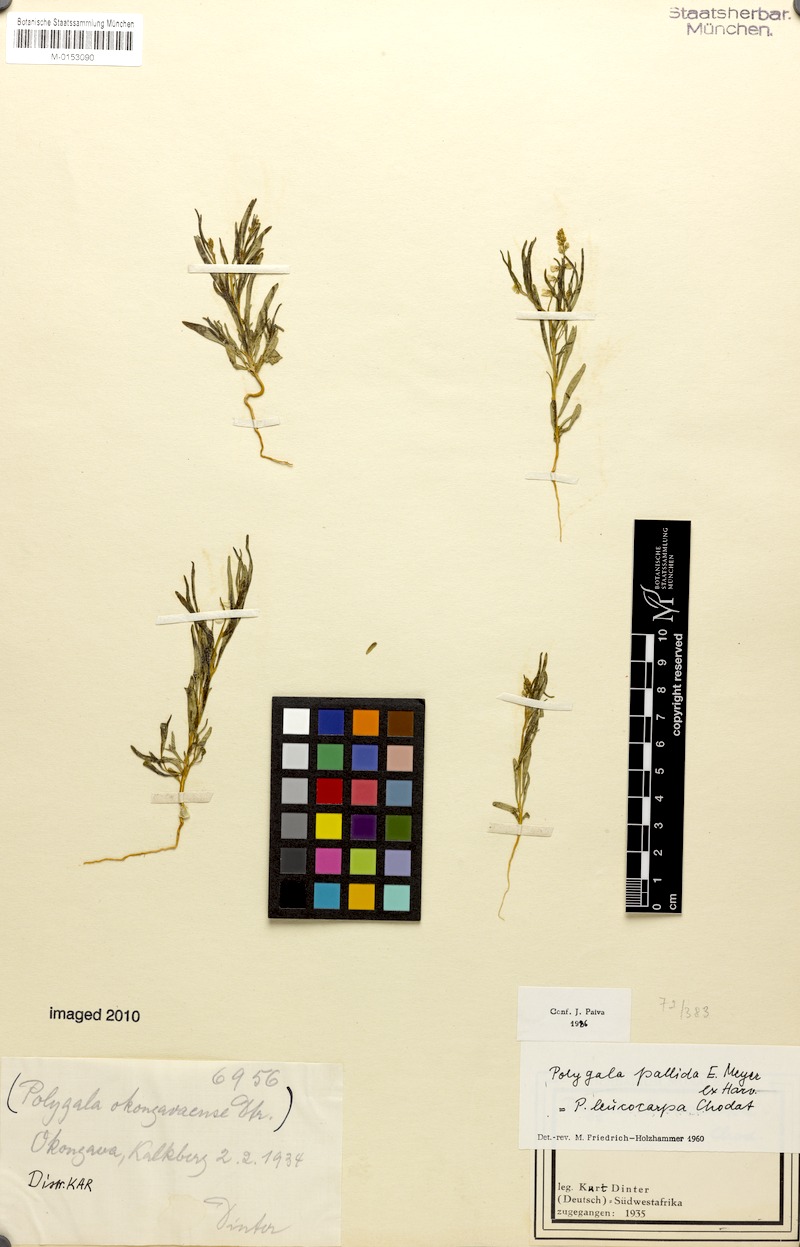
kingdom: Plantae
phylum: Tracheophyta
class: Magnoliopsida
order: Fabales
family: Polygalaceae
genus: Polygala
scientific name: Polygala pallida
